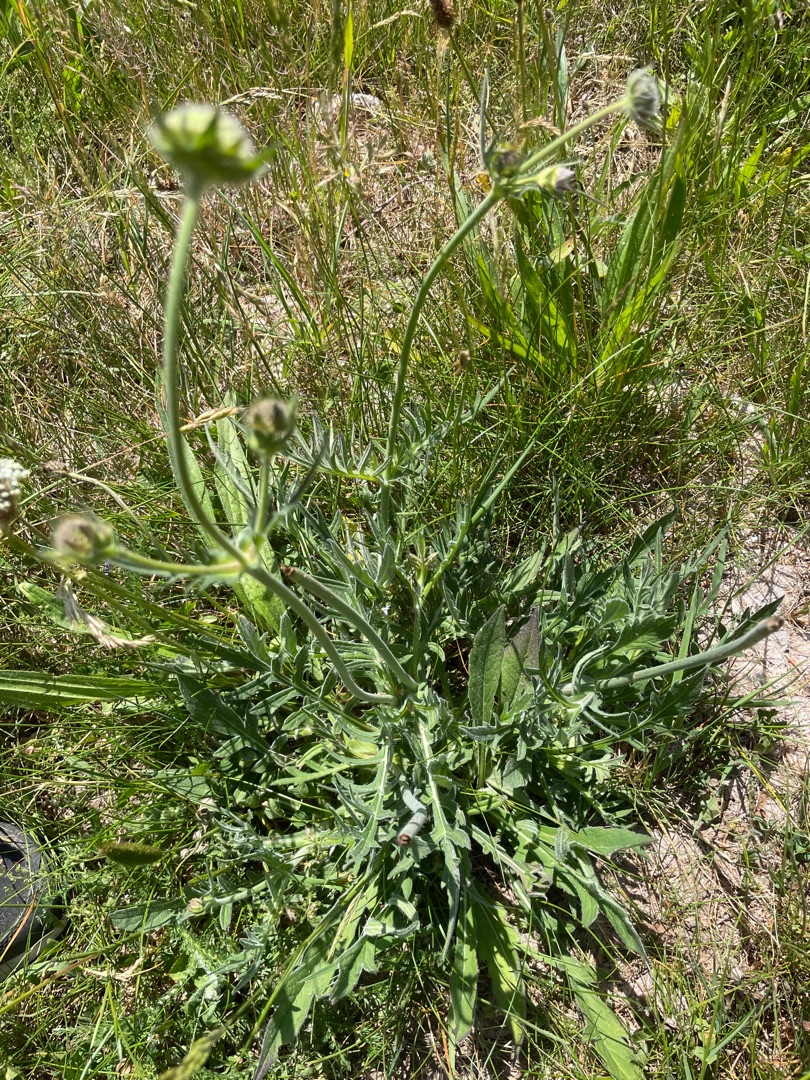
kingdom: Plantae
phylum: Tracheophyta
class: Magnoliopsida
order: Dipsacales
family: Caprifoliaceae
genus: Knautia
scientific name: Knautia arvensis
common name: Blåhat
